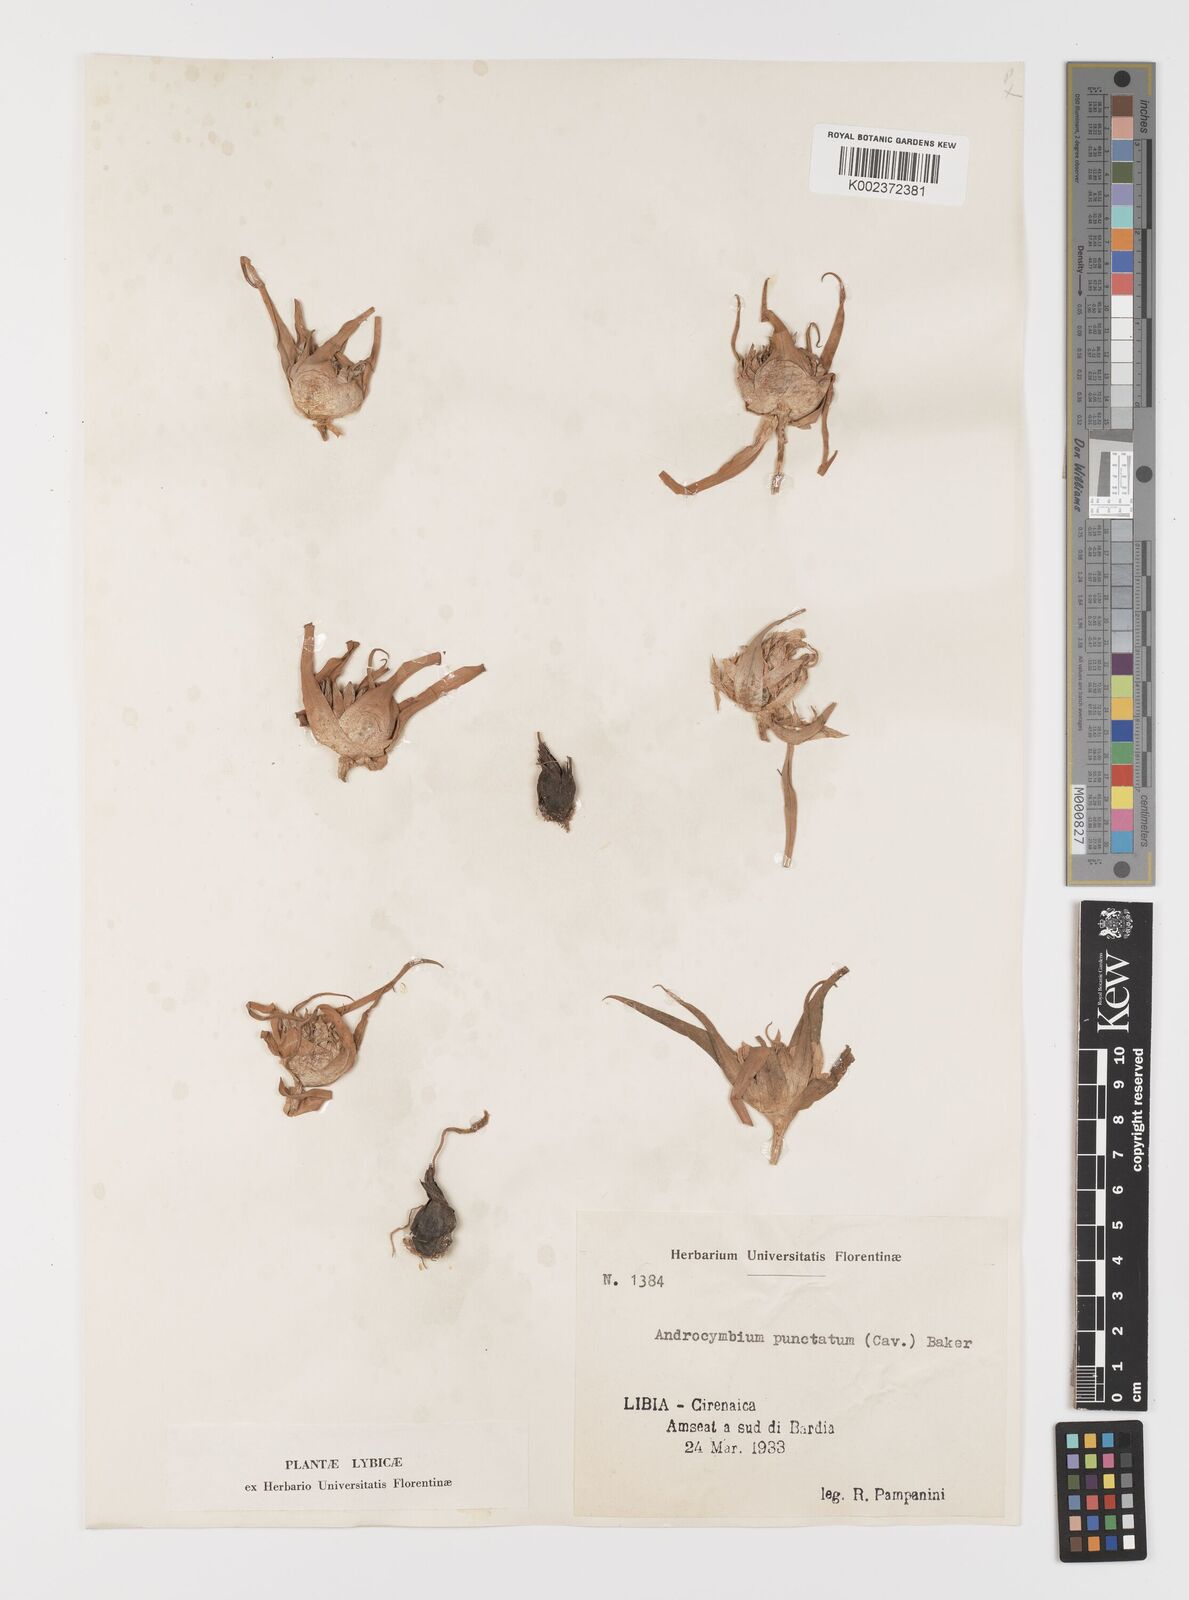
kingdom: Plantae
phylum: Tracheophyta
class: Liliopsida
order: Liliales
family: Colchicaceae
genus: Colchicum
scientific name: Colchicum gramineum
